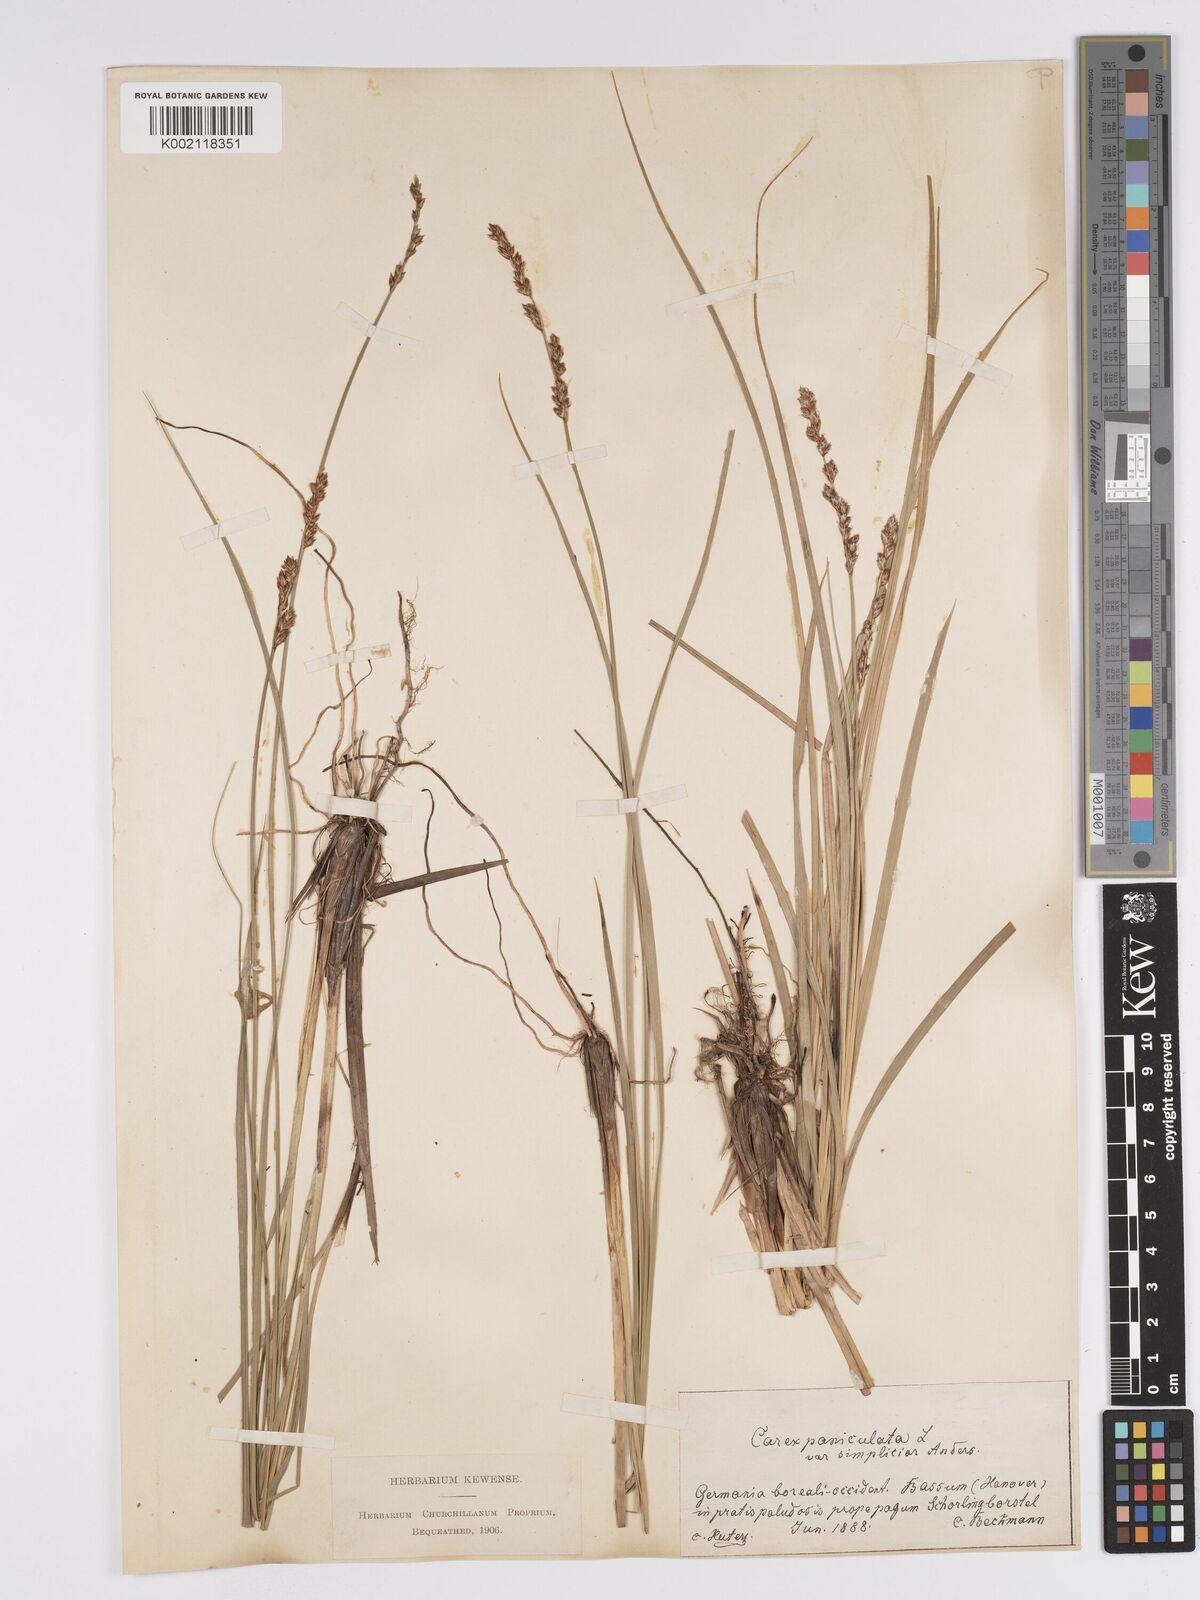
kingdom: Plantae
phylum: Tracheophyta
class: Liliopsida
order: Poales
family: Cyperaceae
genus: Carex
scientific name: Carex paniculata
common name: Greater tussock-sedge
